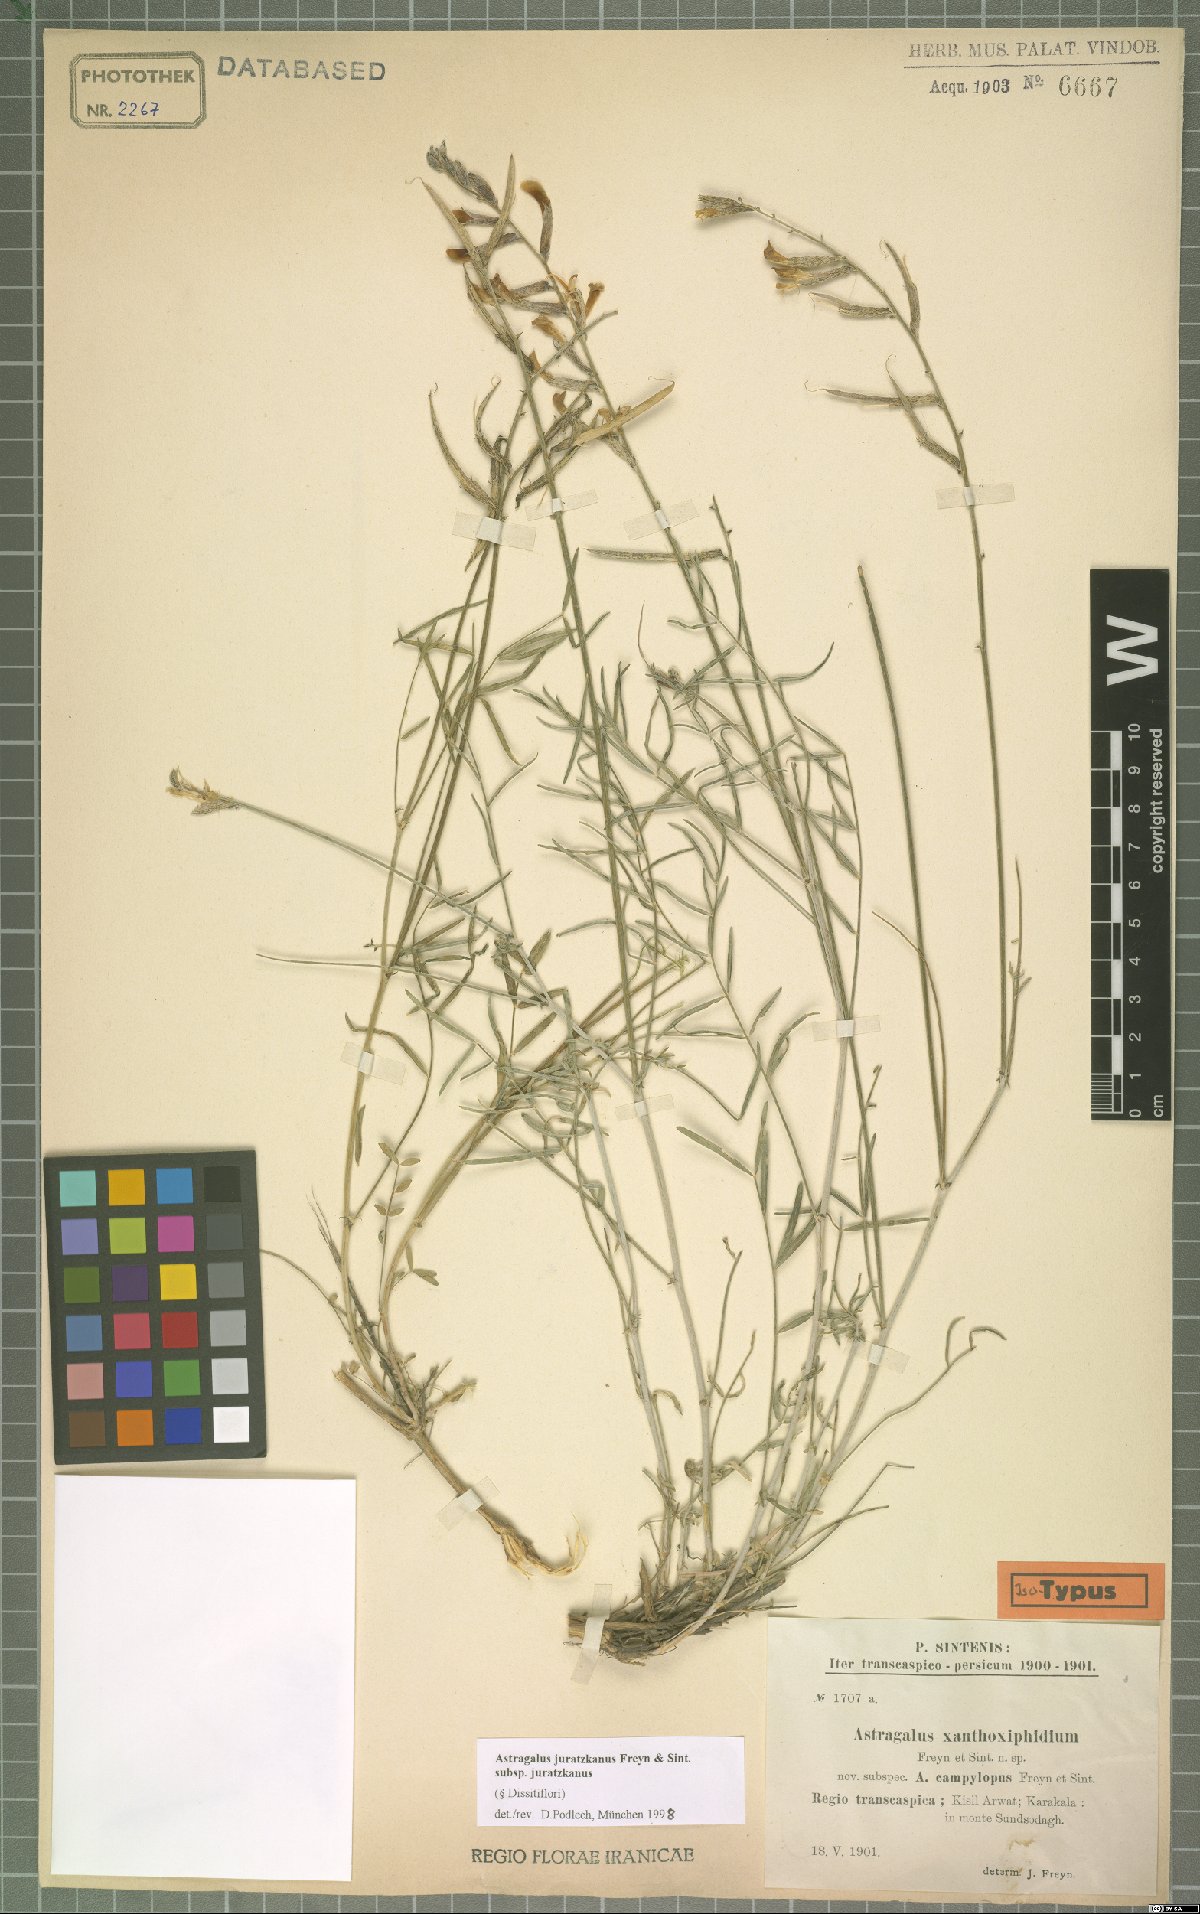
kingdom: Plantae
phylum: Tracheophyta
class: Magnoliopsida
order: Fabales
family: Fabaceae
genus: Astragalus
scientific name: Astragalus juratzkanus
